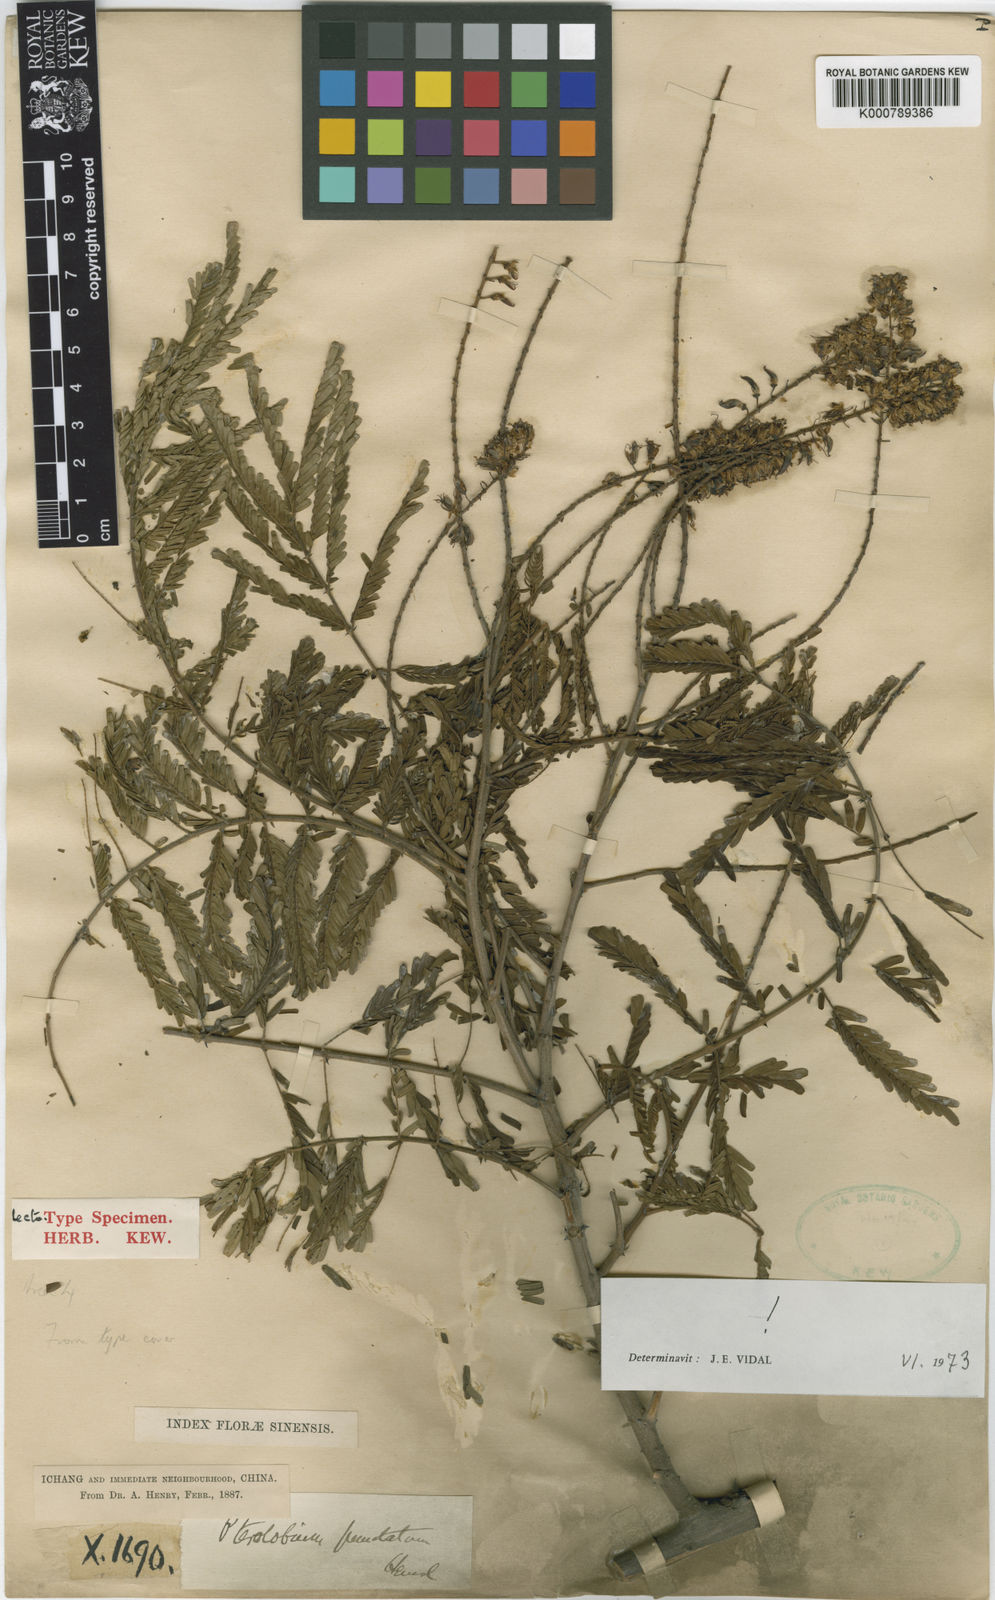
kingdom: Plantae
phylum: Tracheophyta
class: Magnoliopsida
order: Fabales
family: Fabaceae
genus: Pterolobium
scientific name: Pterolobium punctatum
